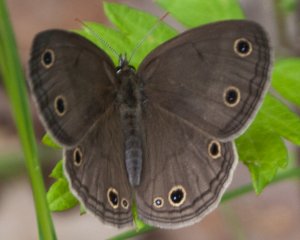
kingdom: Animalia
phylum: Arthropoda
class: Insecta
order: Lepidoptera
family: Nymphalidae
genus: Euptychia
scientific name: Euptychia cymela
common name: Little Wood Satyr
